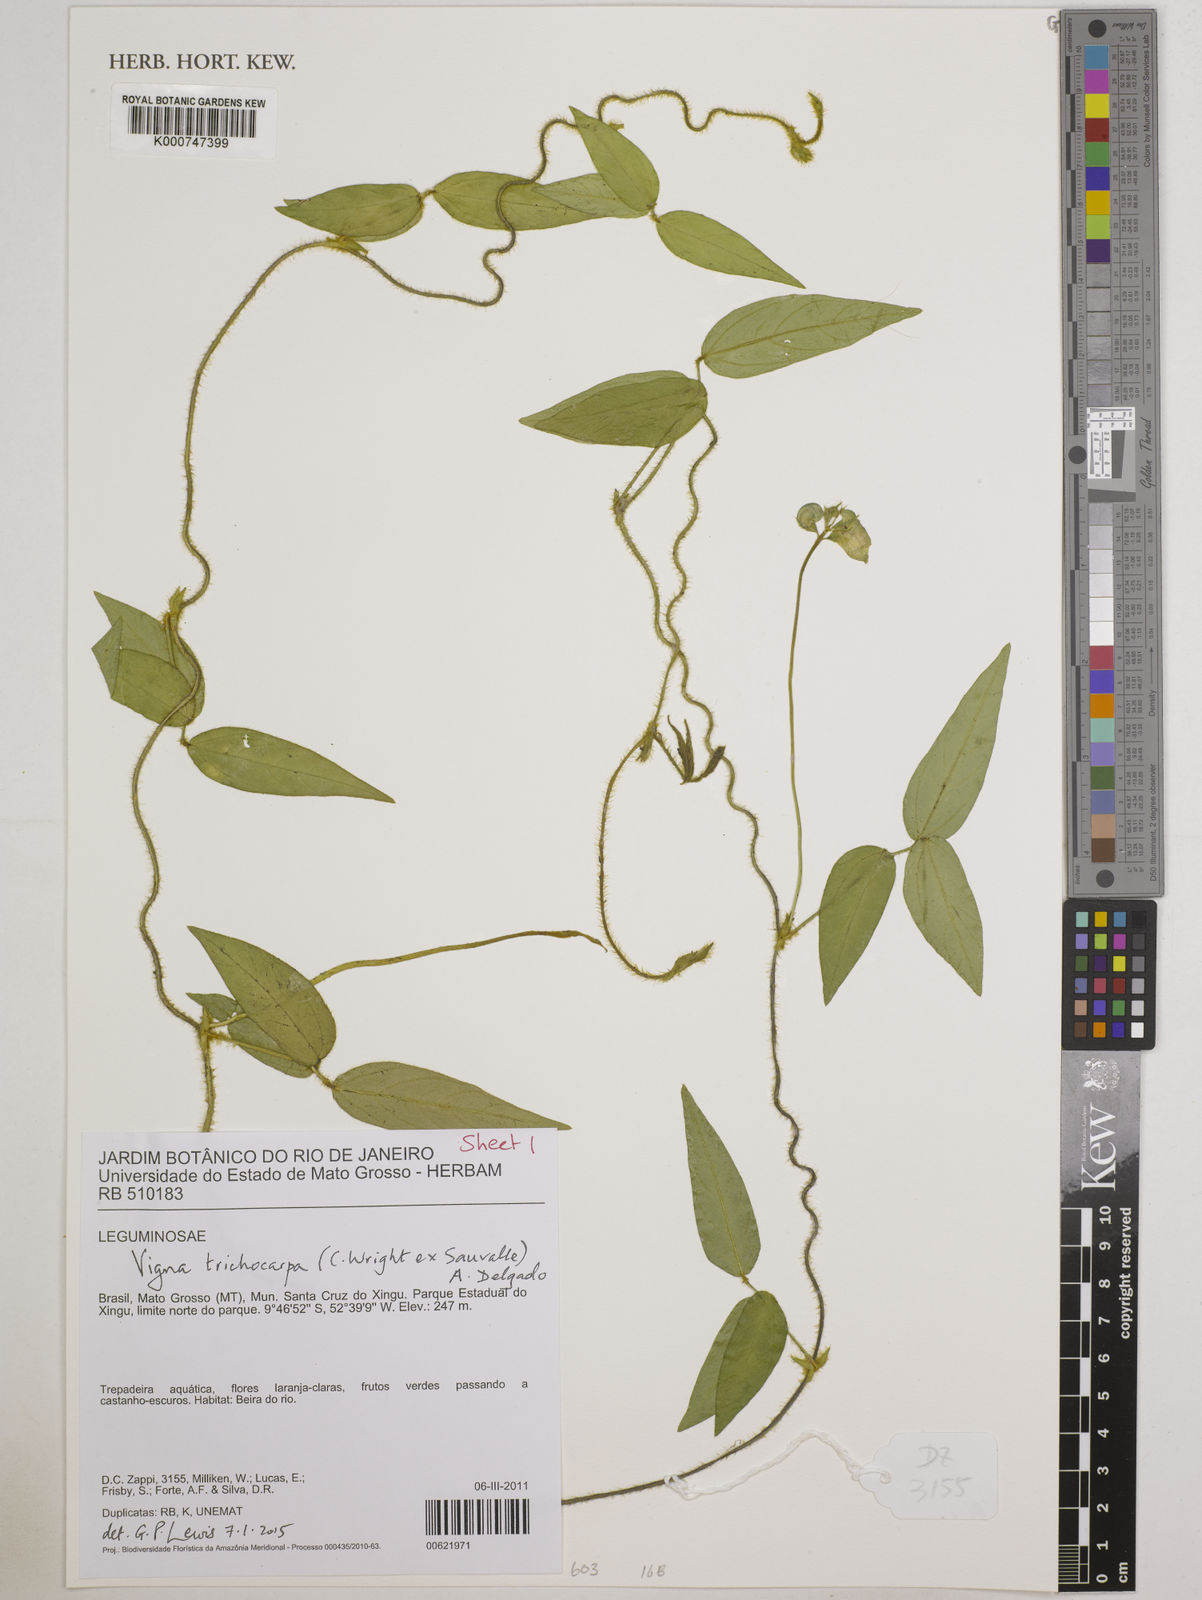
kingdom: Plantae
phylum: Tracheophyta
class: Magnoliopsida
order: Fabales
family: Fabaceae
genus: Vigna
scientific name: Vigna trichocarpa
